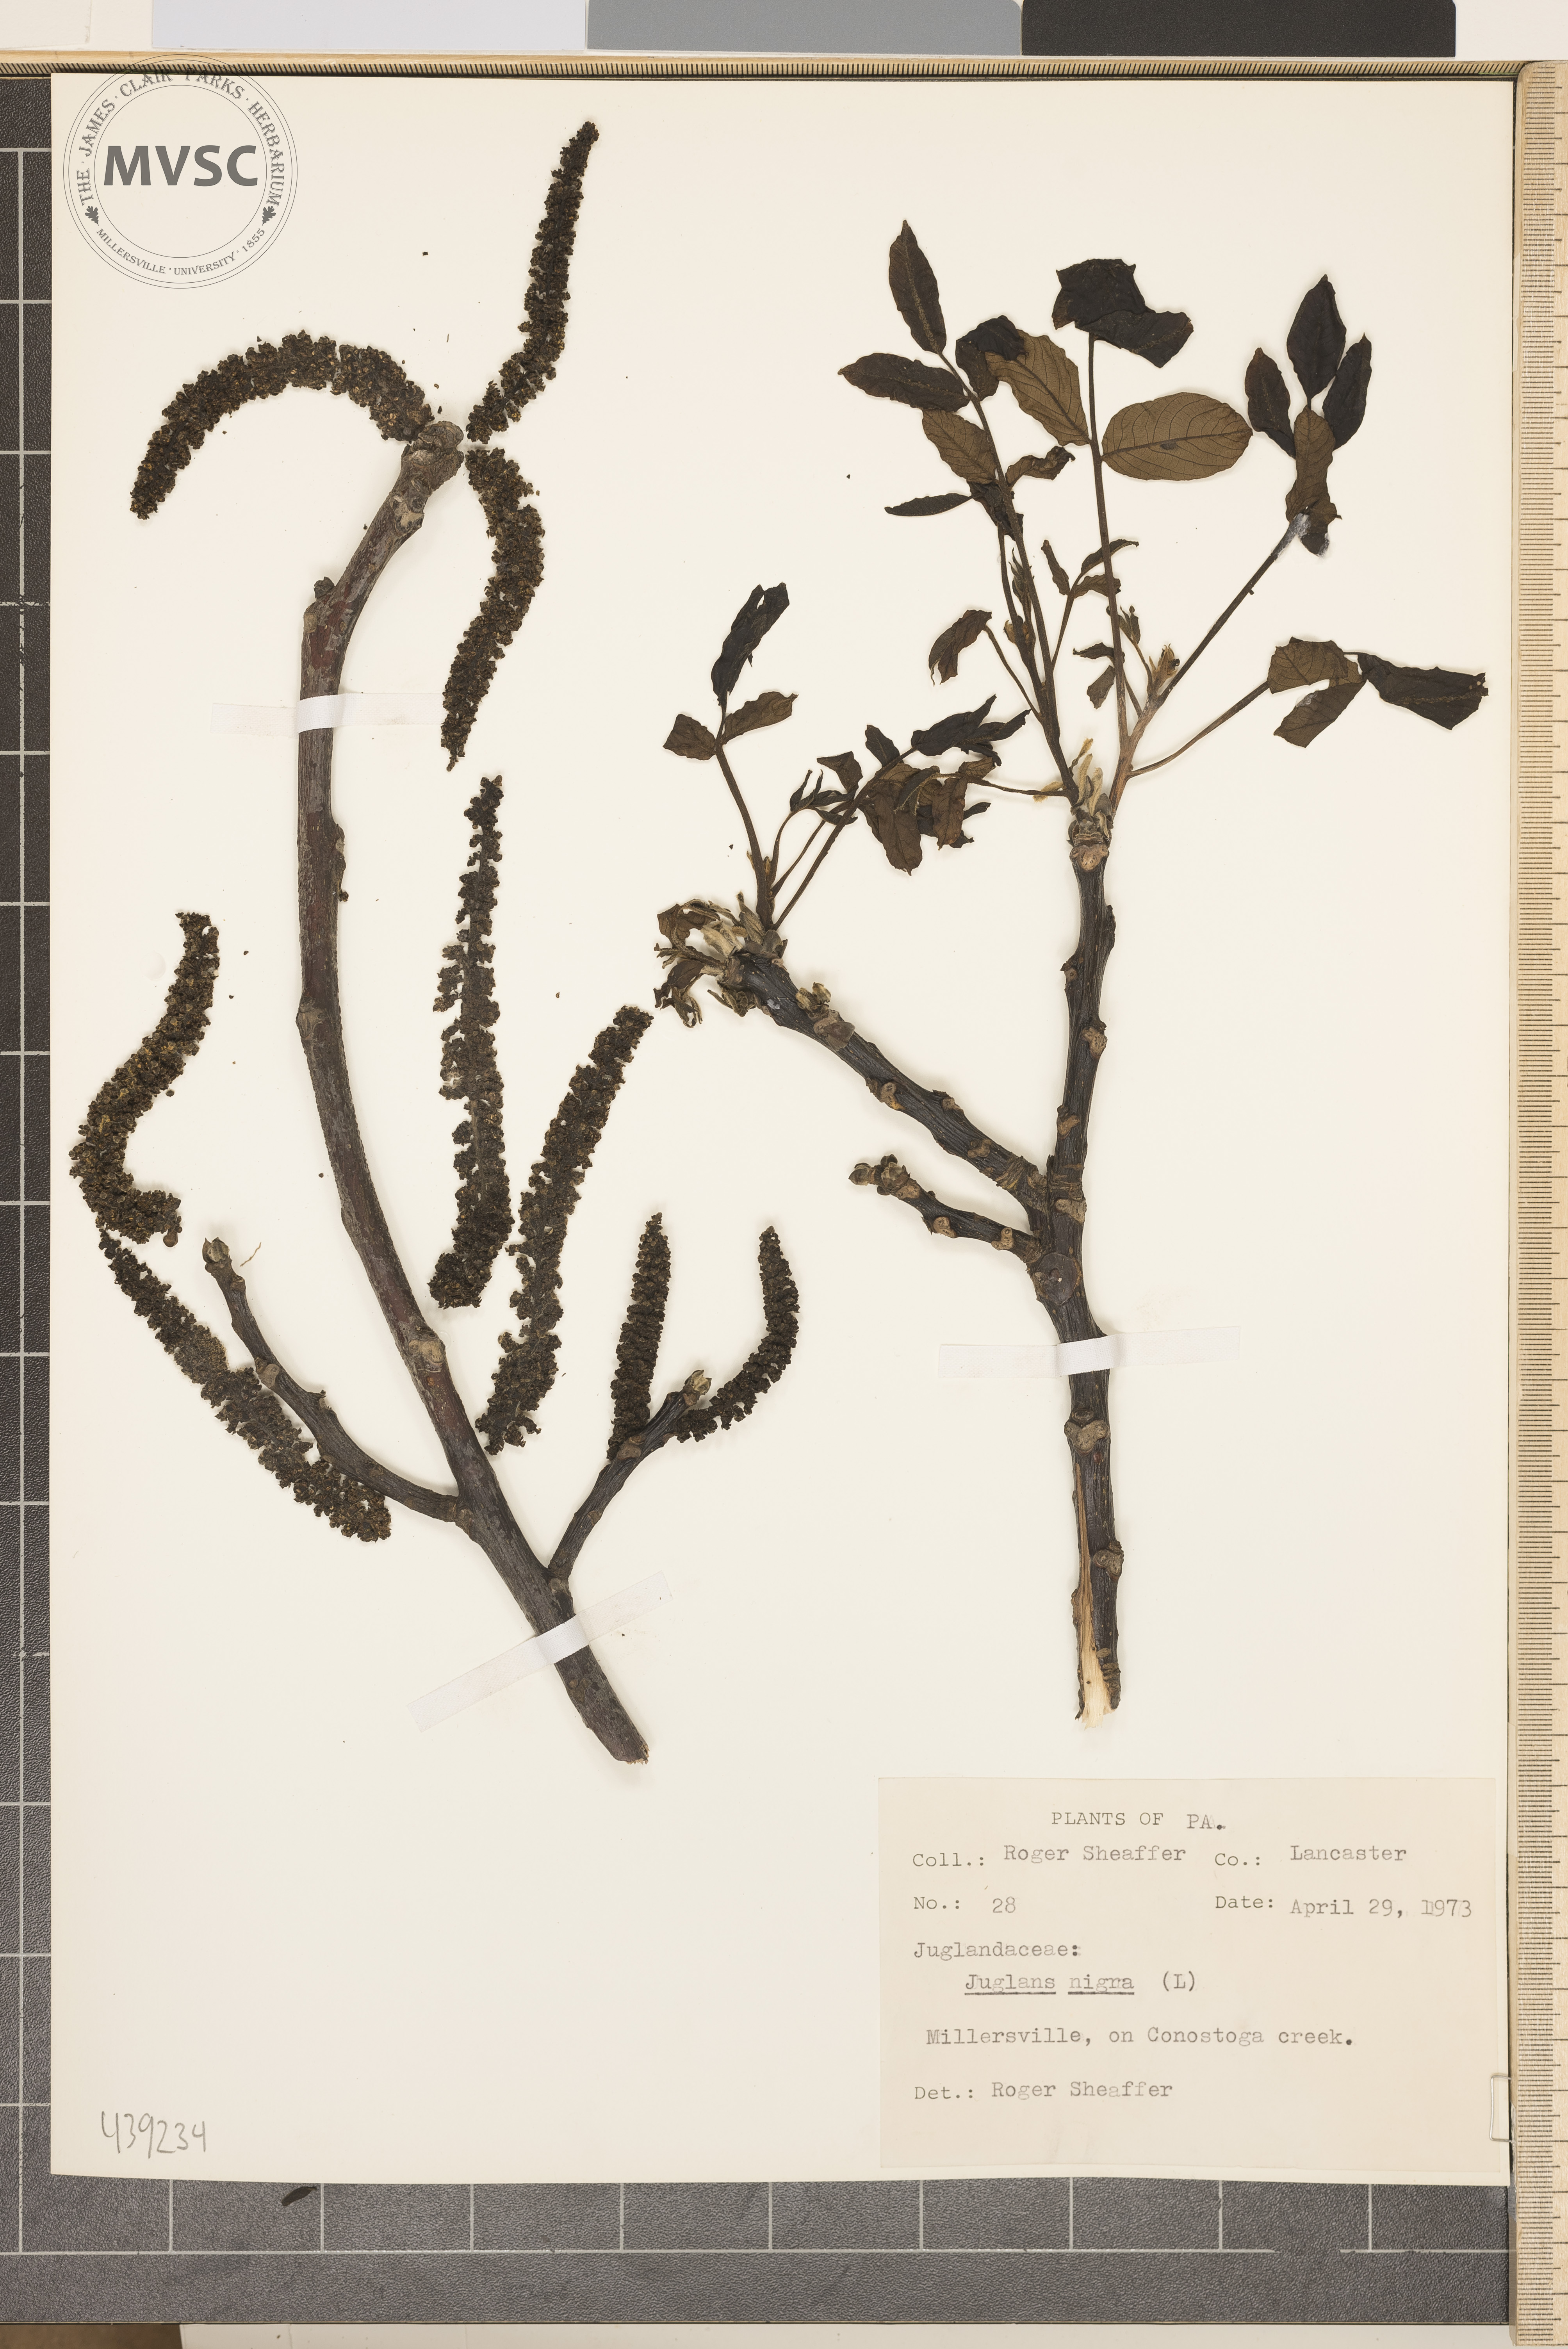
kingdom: Plantae
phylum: Tracheophyta
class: Magnoliopsida
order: Fagales
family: Juglandaceae
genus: Juglans
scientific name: Juglans nigra
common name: Walnut
